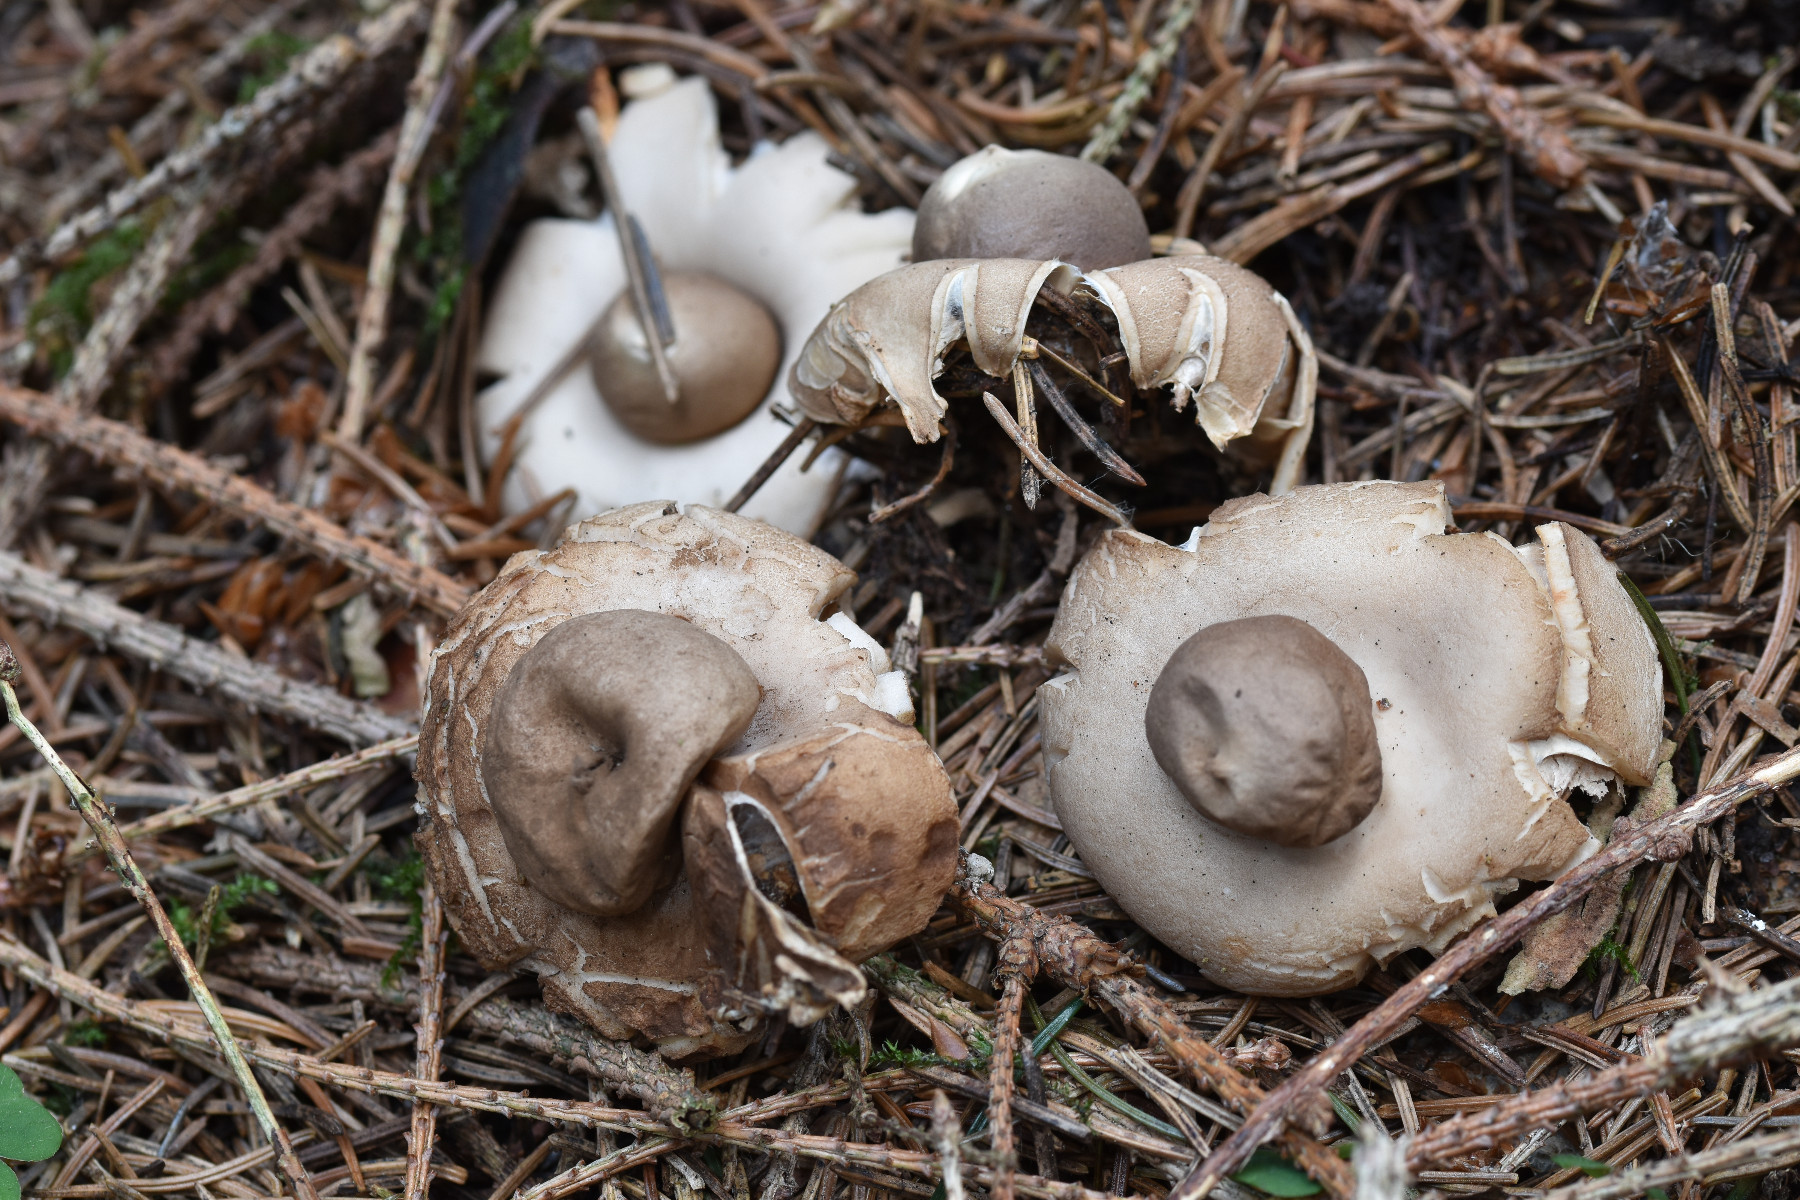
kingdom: Fungi
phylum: Basidiomycota
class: Agaricomycetes
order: Geastrales
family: Geastraceae
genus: Geastrum
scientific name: Geastrum fimbriatum
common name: frynset stjernebold
